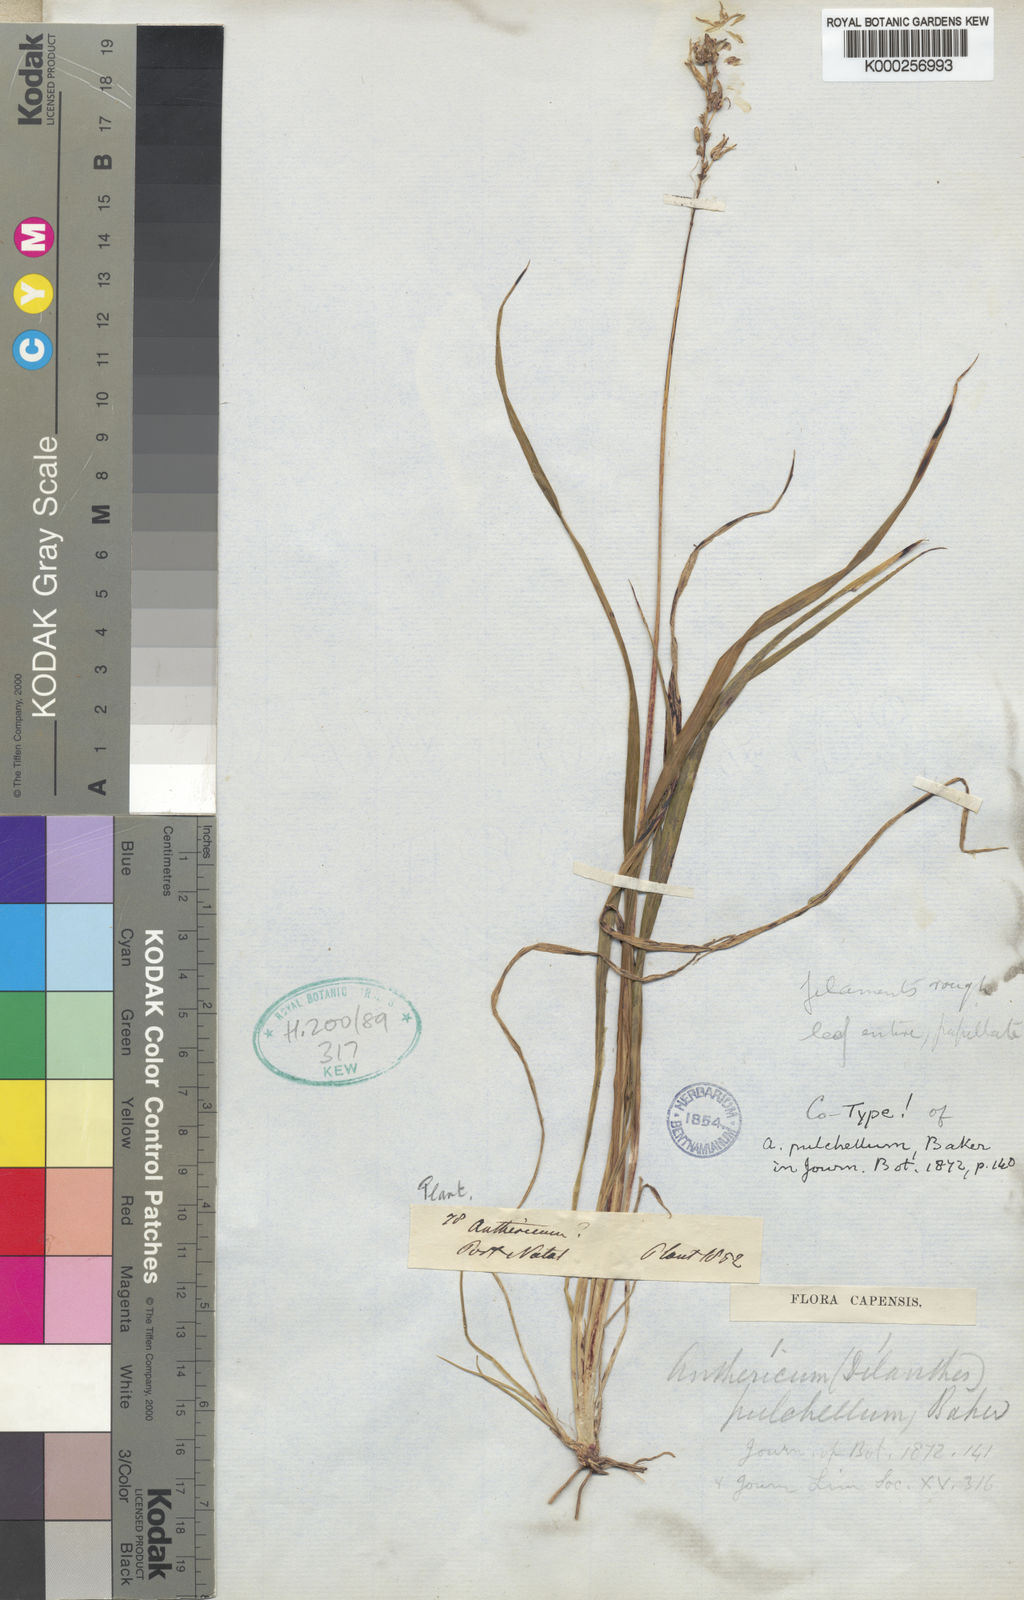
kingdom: Plantae
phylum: Tracheophyta
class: Liliopsida
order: Asparagales
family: Asparagaceae
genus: Chlorophytum
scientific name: Chlorophytum saundersiae
